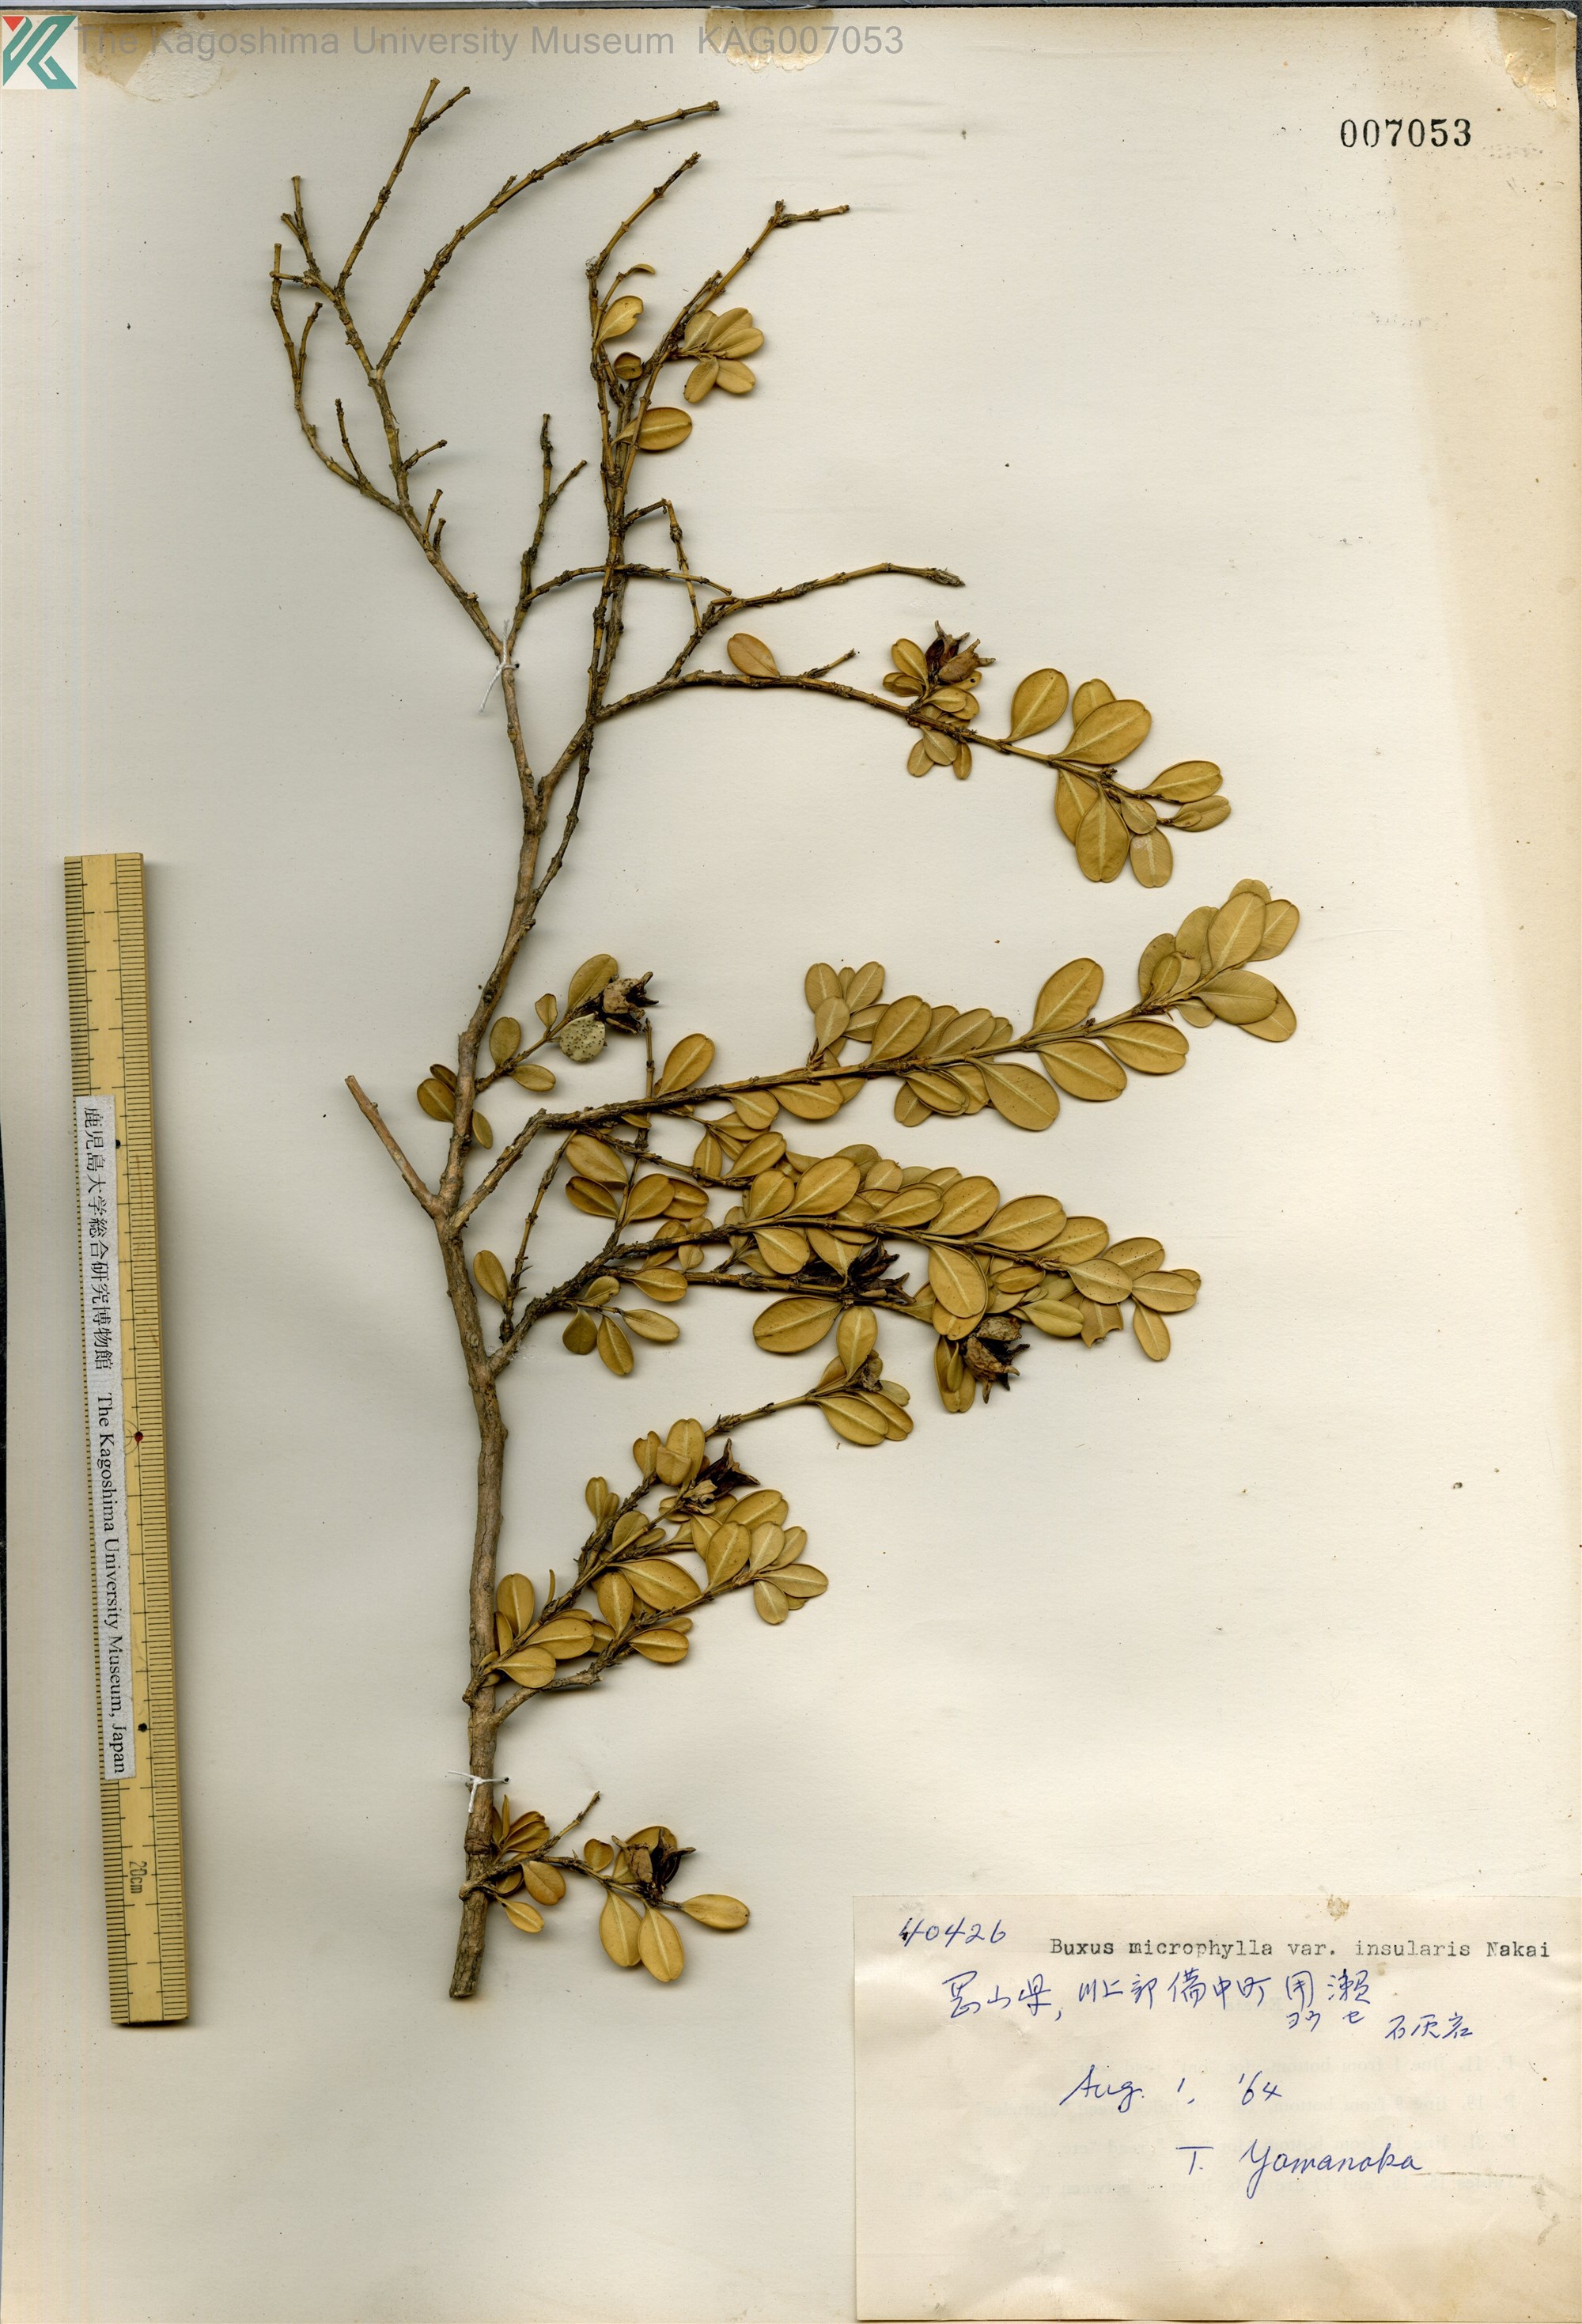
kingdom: Plantae
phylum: Tracheophyta
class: Magnoliopsida
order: Buxales
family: Buxaceae
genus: Buxus
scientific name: Buxus sinica
